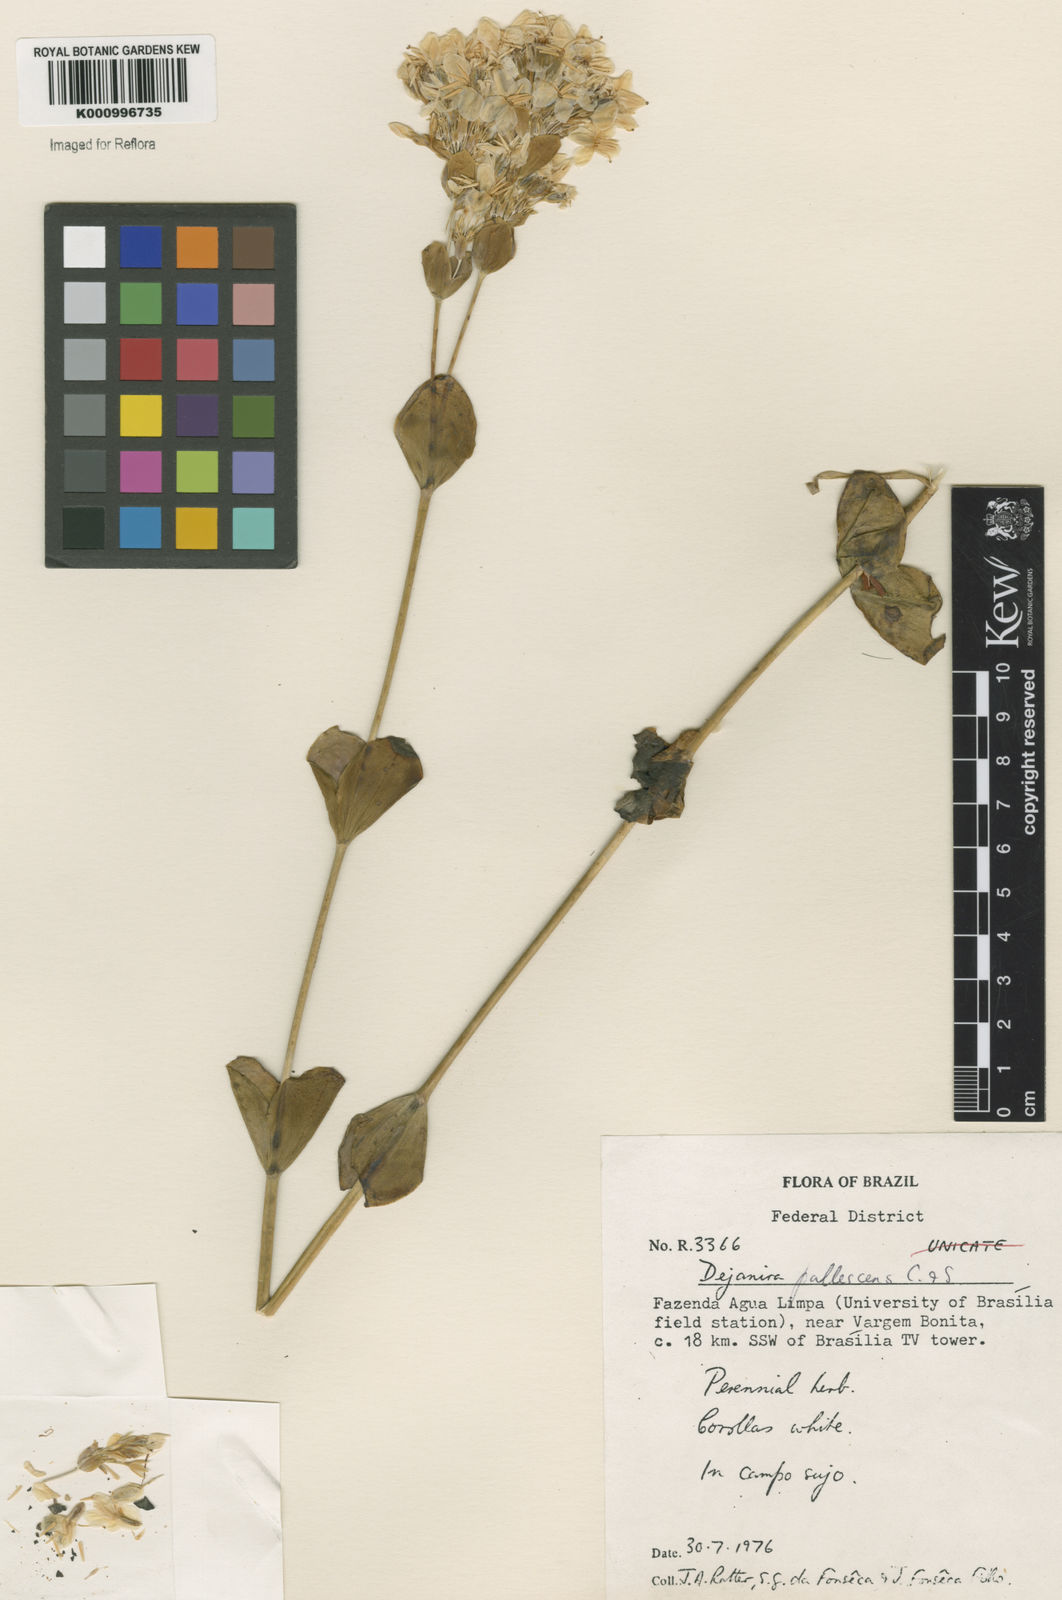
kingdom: Plantae
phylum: Tracheophyta
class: Magnoliopsida
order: Gentianales
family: Gentianaceae
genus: Deianira
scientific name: Deianira pallescens
